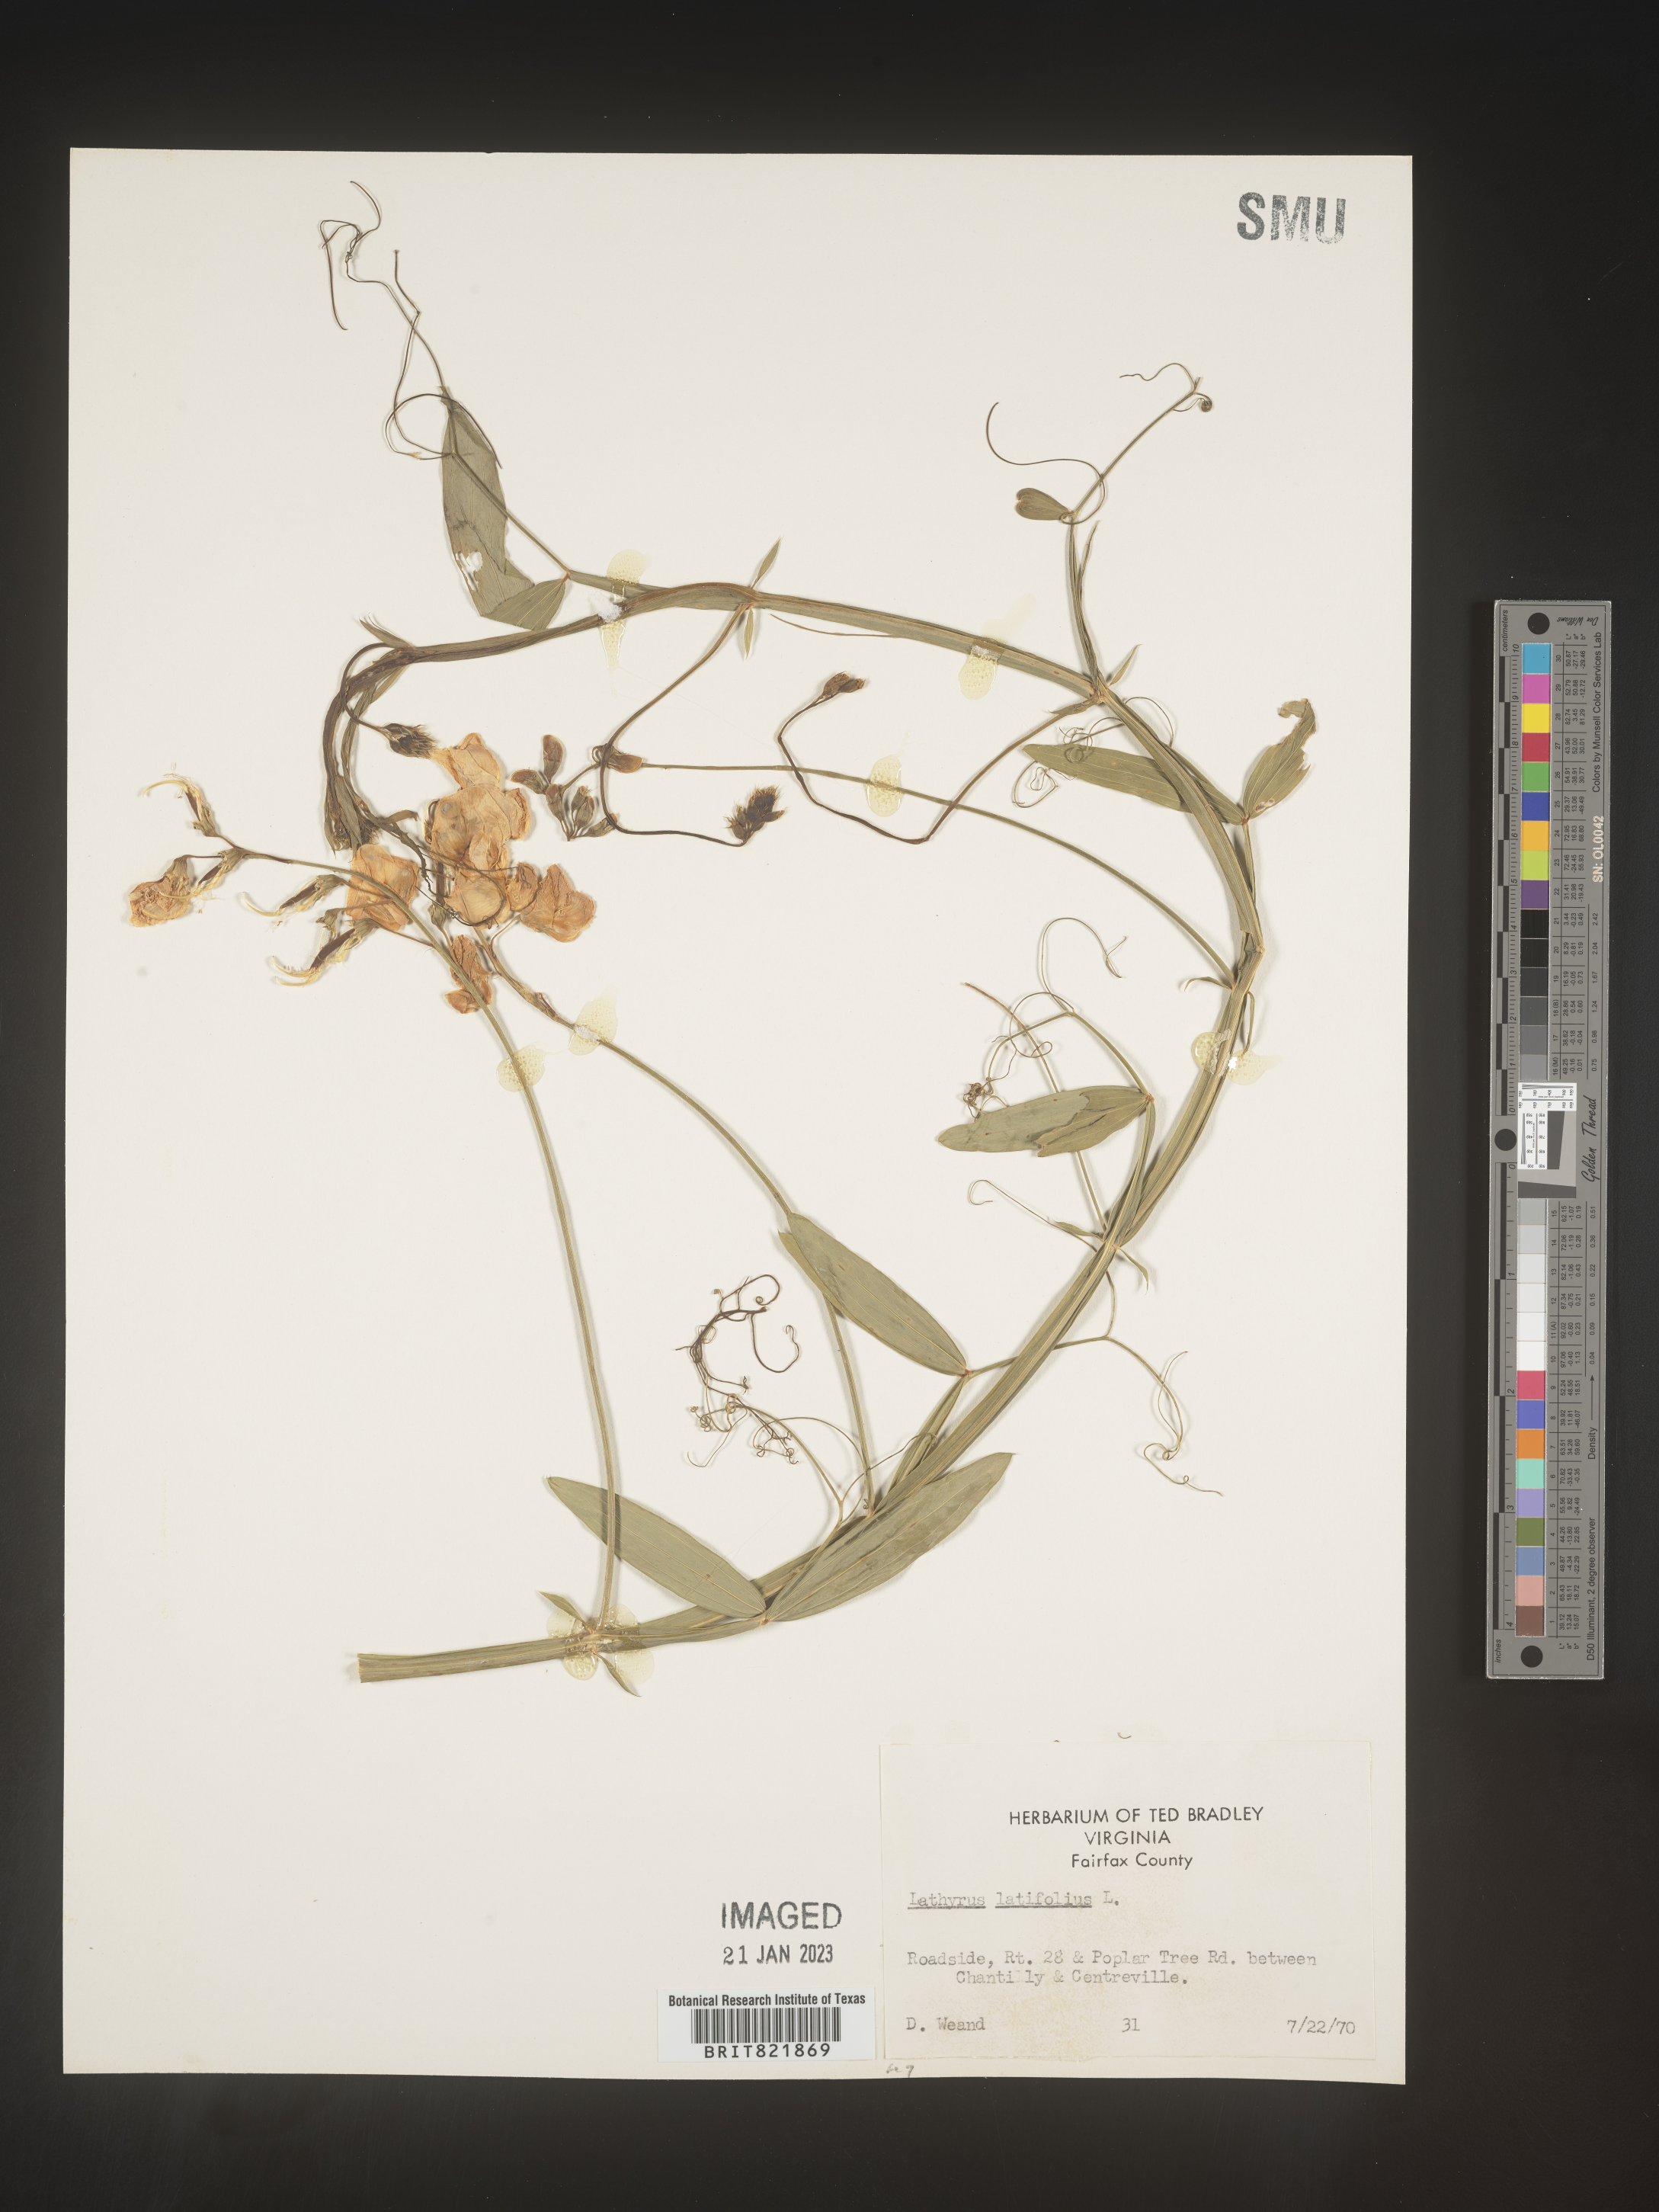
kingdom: Plantae
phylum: Tracheophyta
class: Magnoliopsida
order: Fabales
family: Fabaceae
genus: Lathyrus
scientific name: Lathyrus latifolius
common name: Perennial pea
